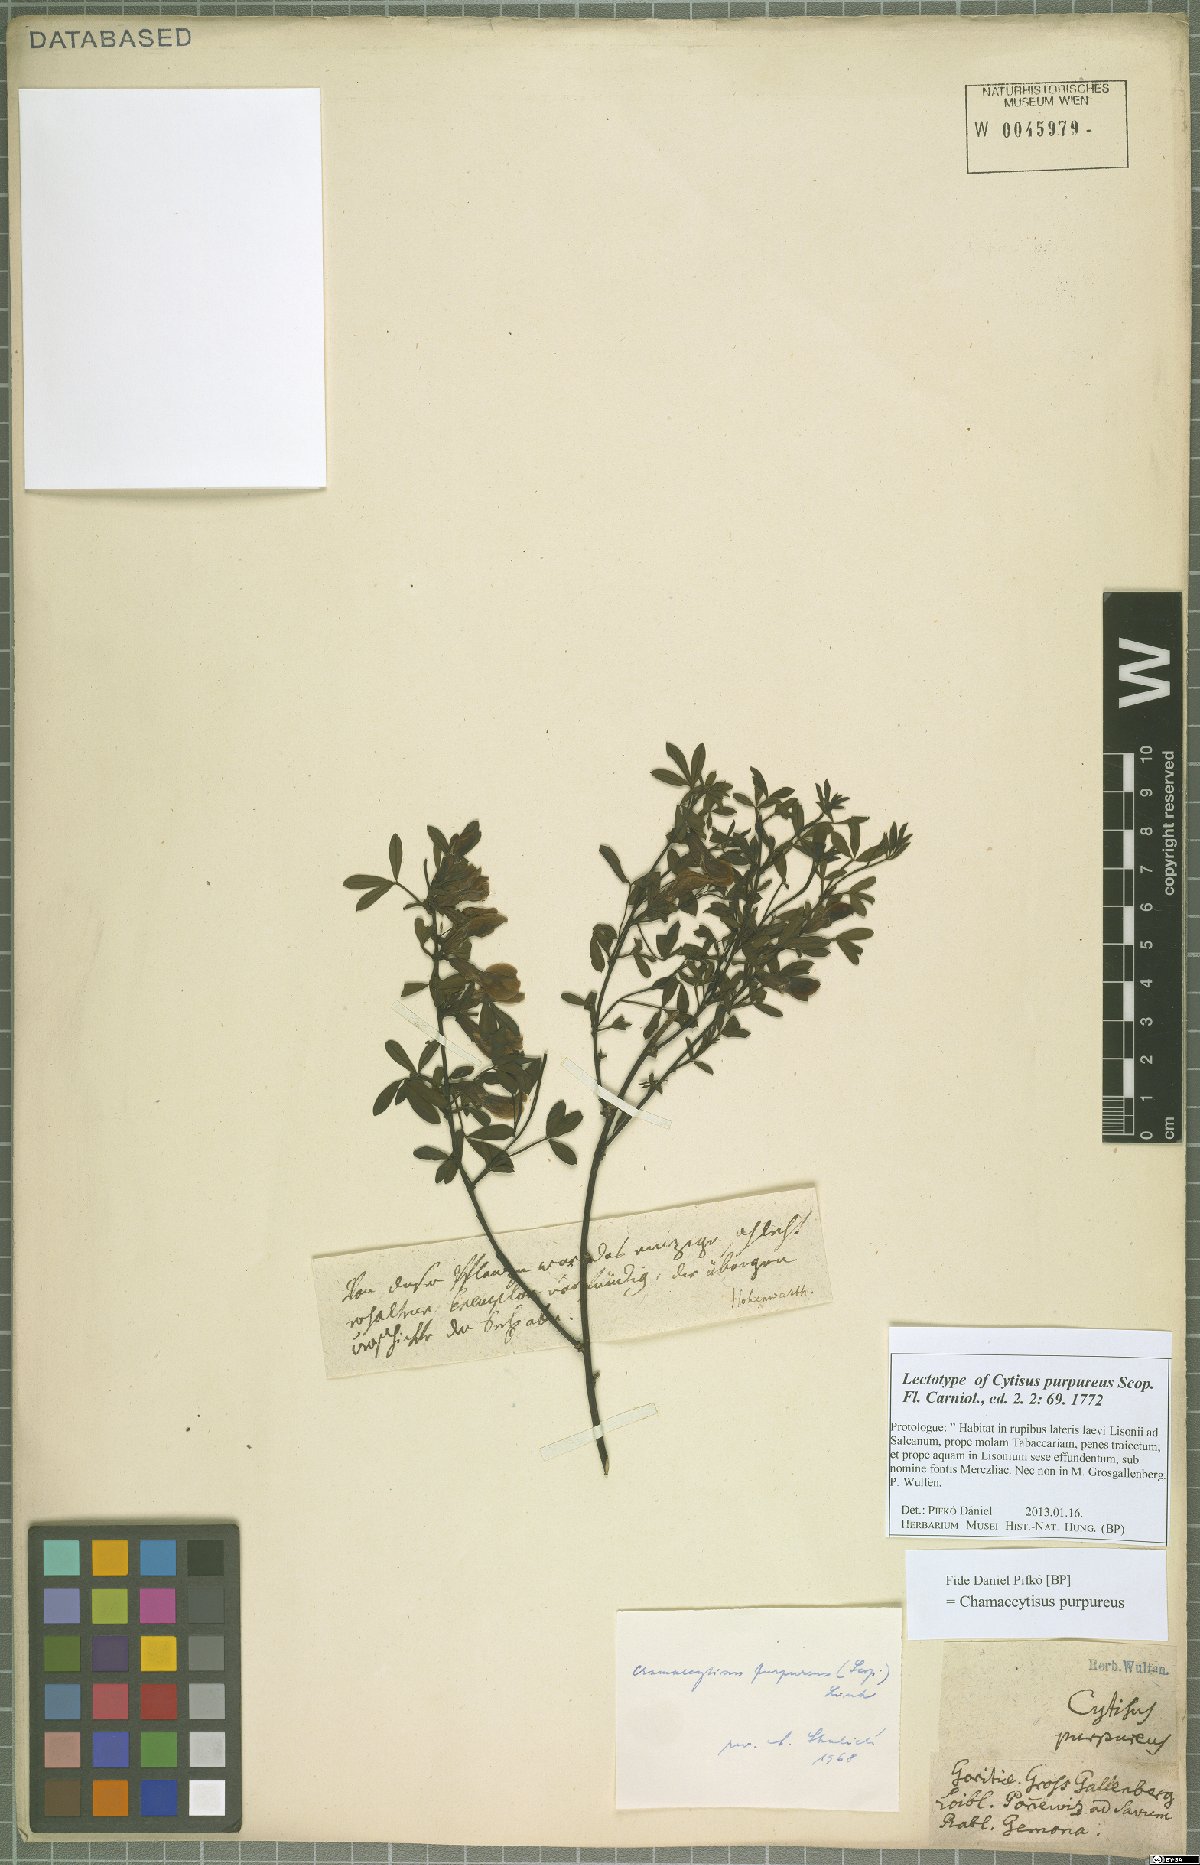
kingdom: Plantae
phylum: Tracheophyta
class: Magnoliopsida
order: Fabales
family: Fabaceae
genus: Chamaecytisus
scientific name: Chamaecytisus purpureus
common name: Purple broom
